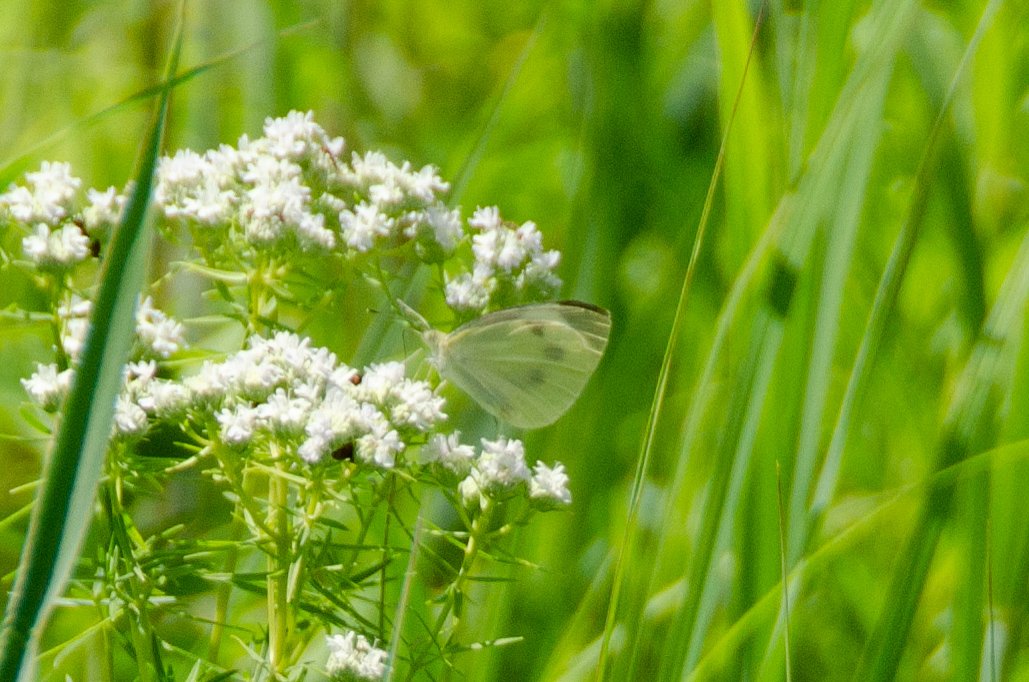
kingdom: Animalia
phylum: Arthropoda
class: Insecta
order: Lepidoptera
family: Pieridae
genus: Pieris
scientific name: Pieris rapae
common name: Cabbage White
